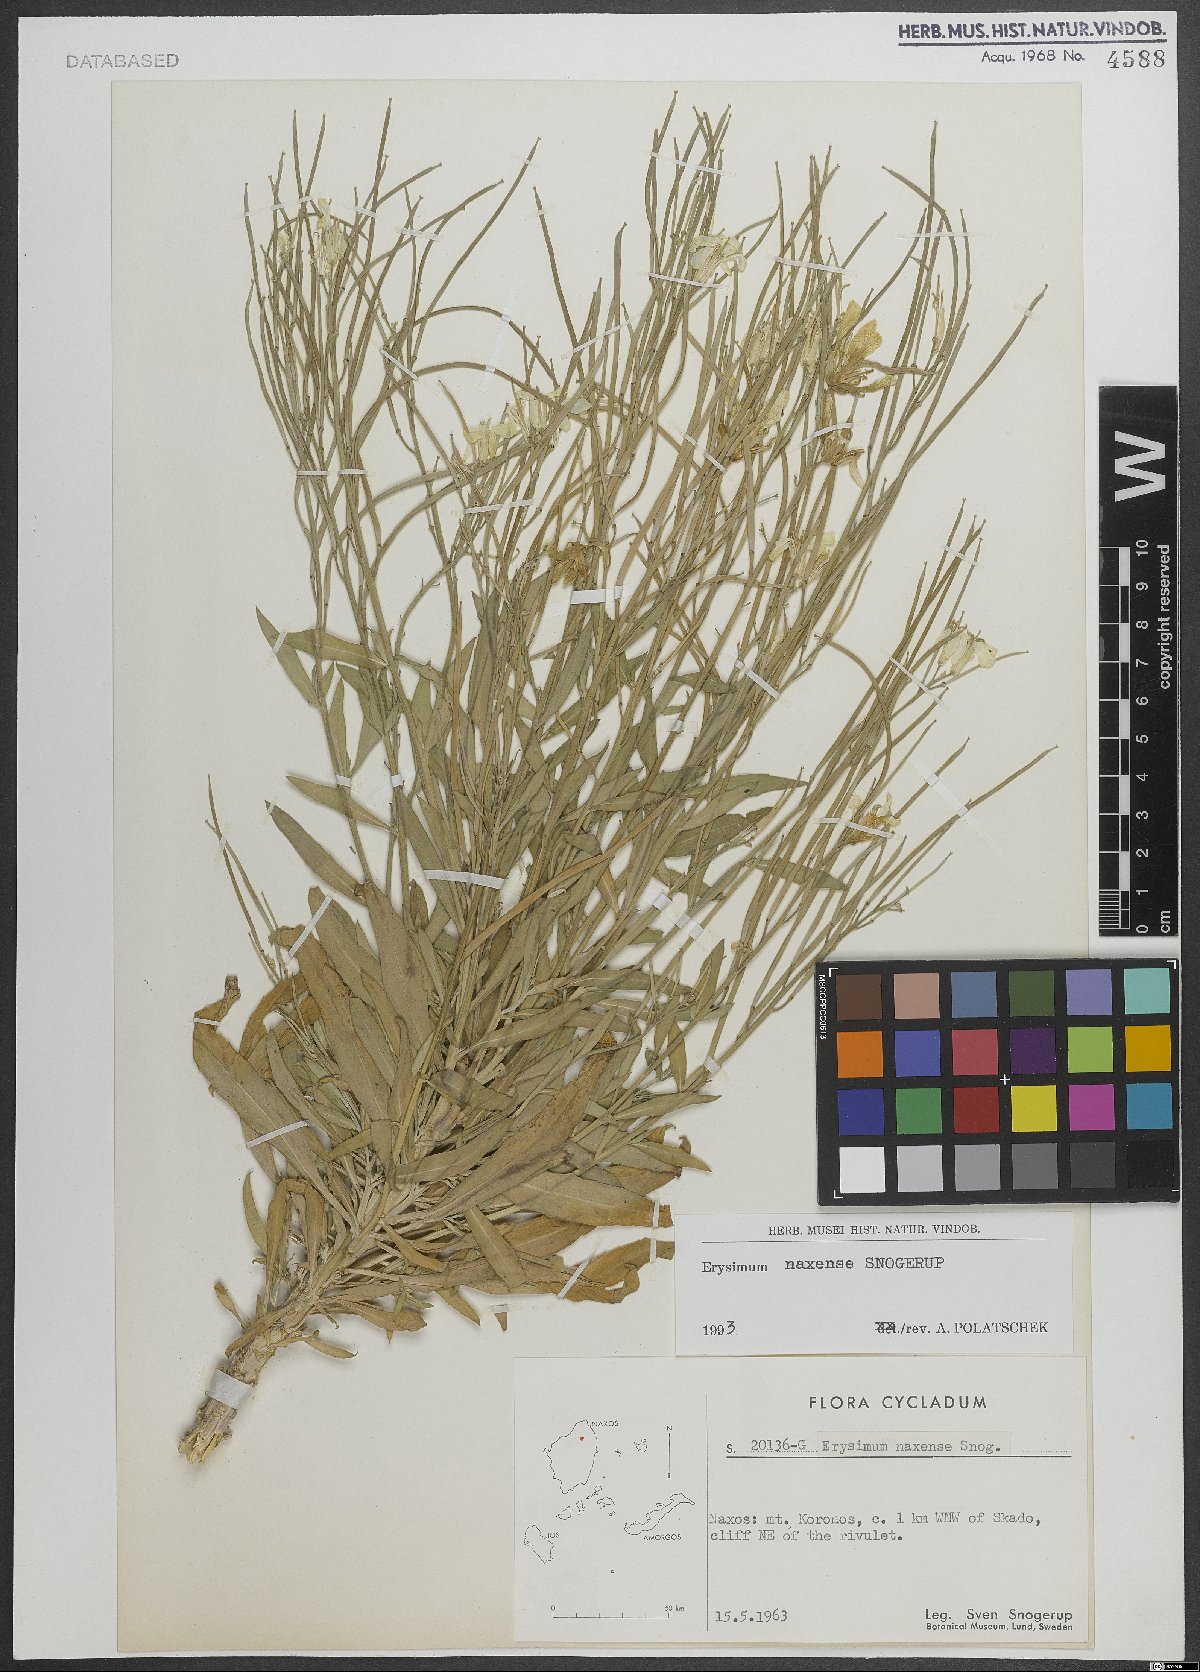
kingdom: Plantae
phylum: Tracheophyta
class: Magnoliopsida
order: Brassicales
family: Brassicaceae
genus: Erysimum
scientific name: Erysimum naxense
